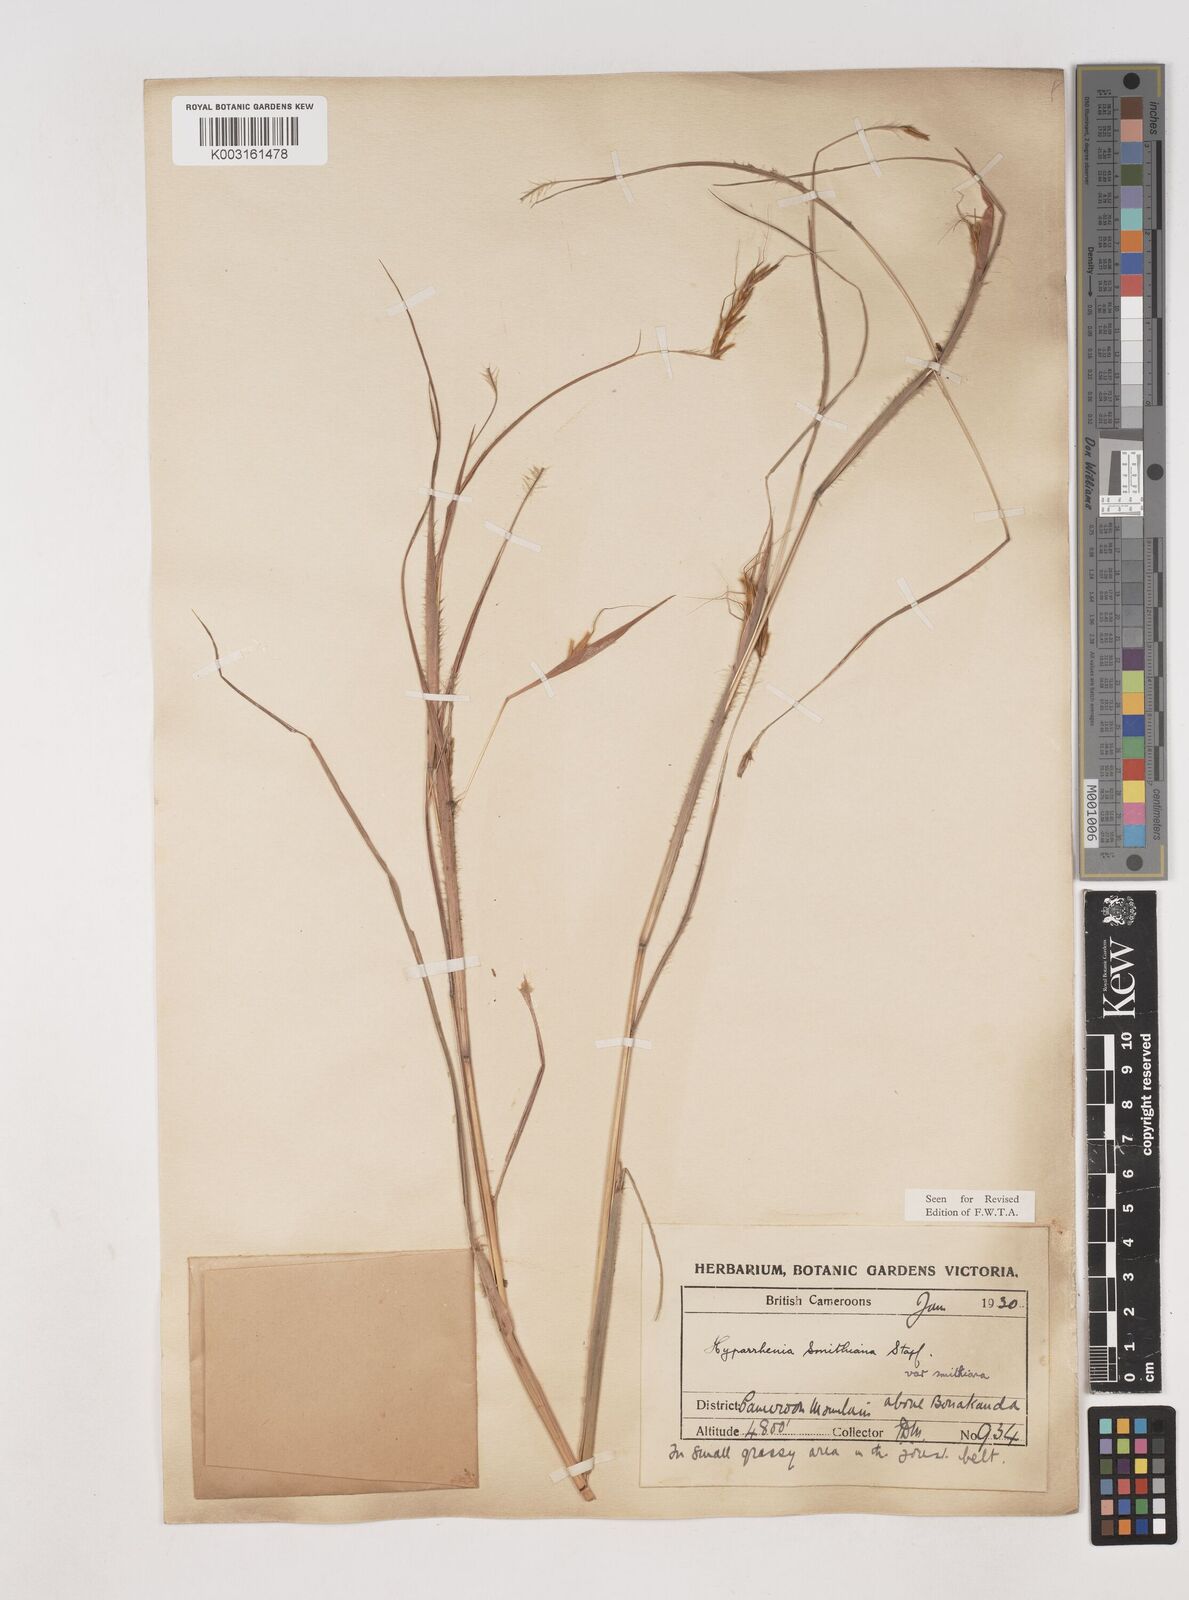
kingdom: Plantae
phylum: Tracheophyta
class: Liliopsida
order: Poales
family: Poaceae
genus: Hyparrhenia
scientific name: Hyparrhenia smithiana
